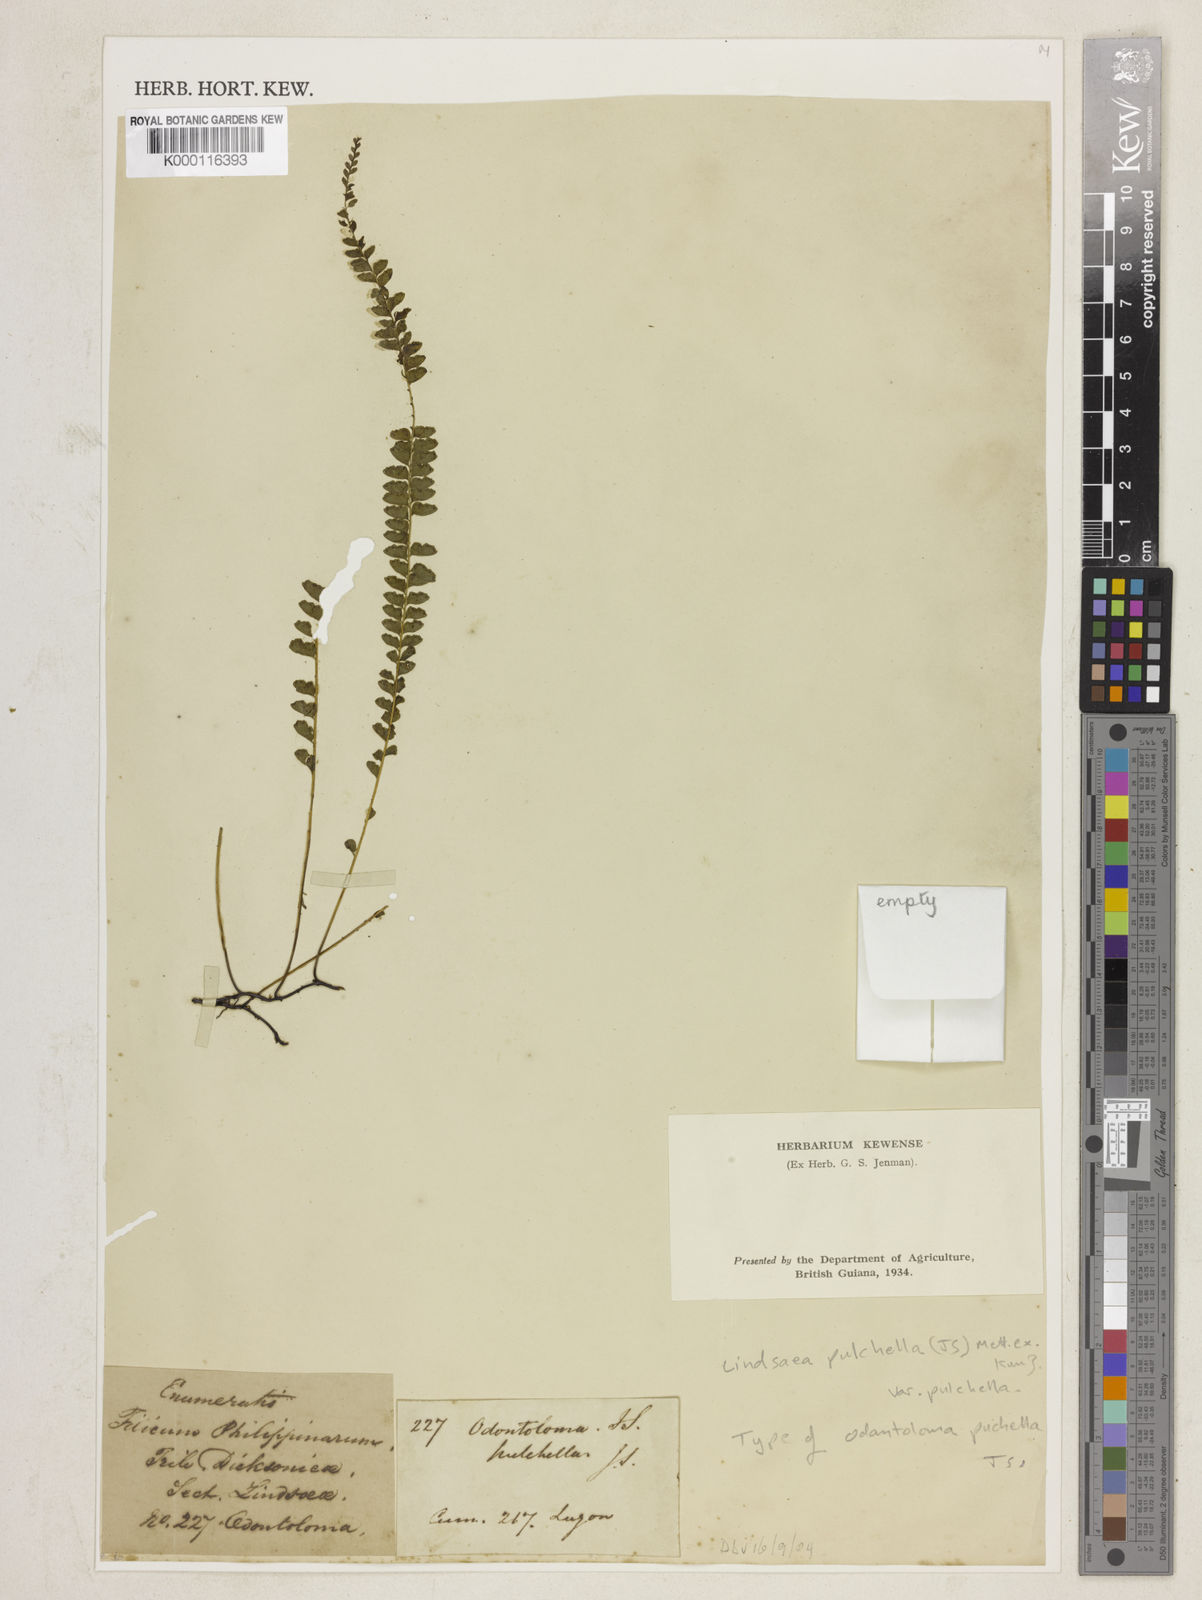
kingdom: Plantae
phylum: Tracheophyta
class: Polypodiopsida
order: Polypodiales
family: Lindsaeaceae
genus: Lindsaea
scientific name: Lindsaea
